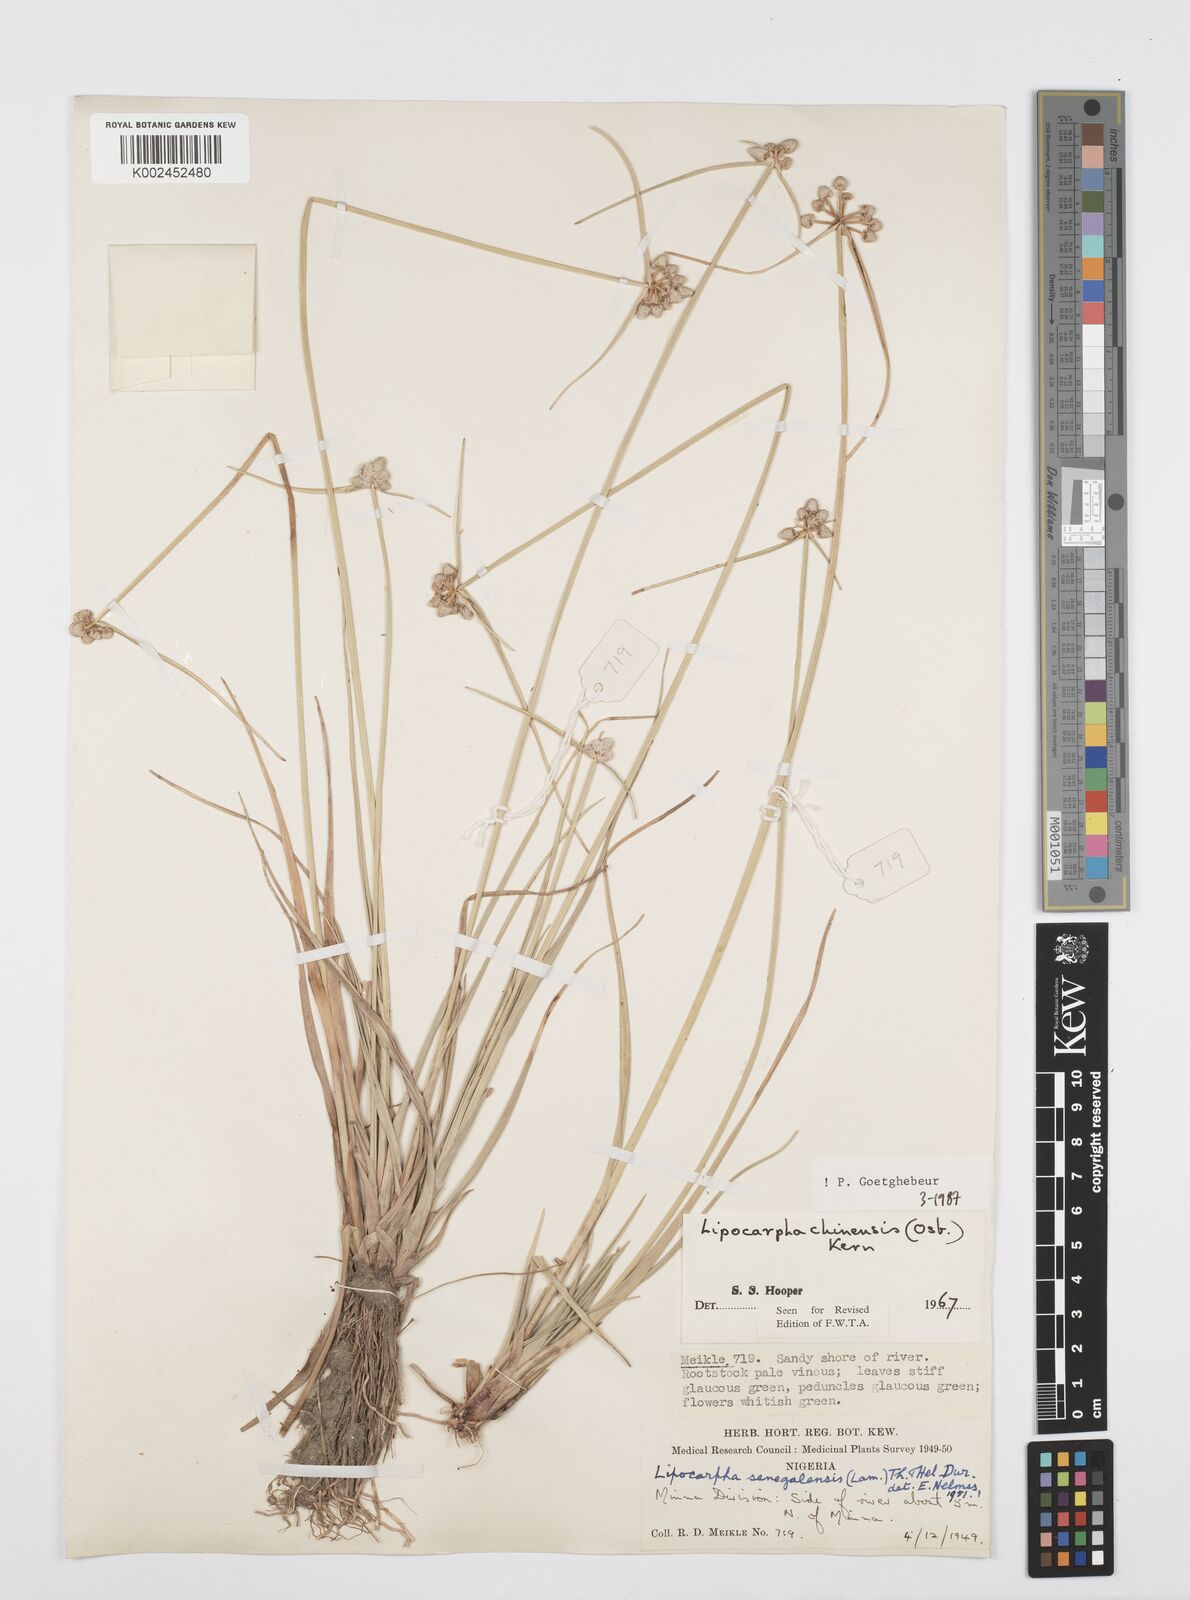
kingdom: Plantae
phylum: Tracheophyta
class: Liliopsida
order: Poales
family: Cyperaceae
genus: Cyperus
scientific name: Cyperus albescens
